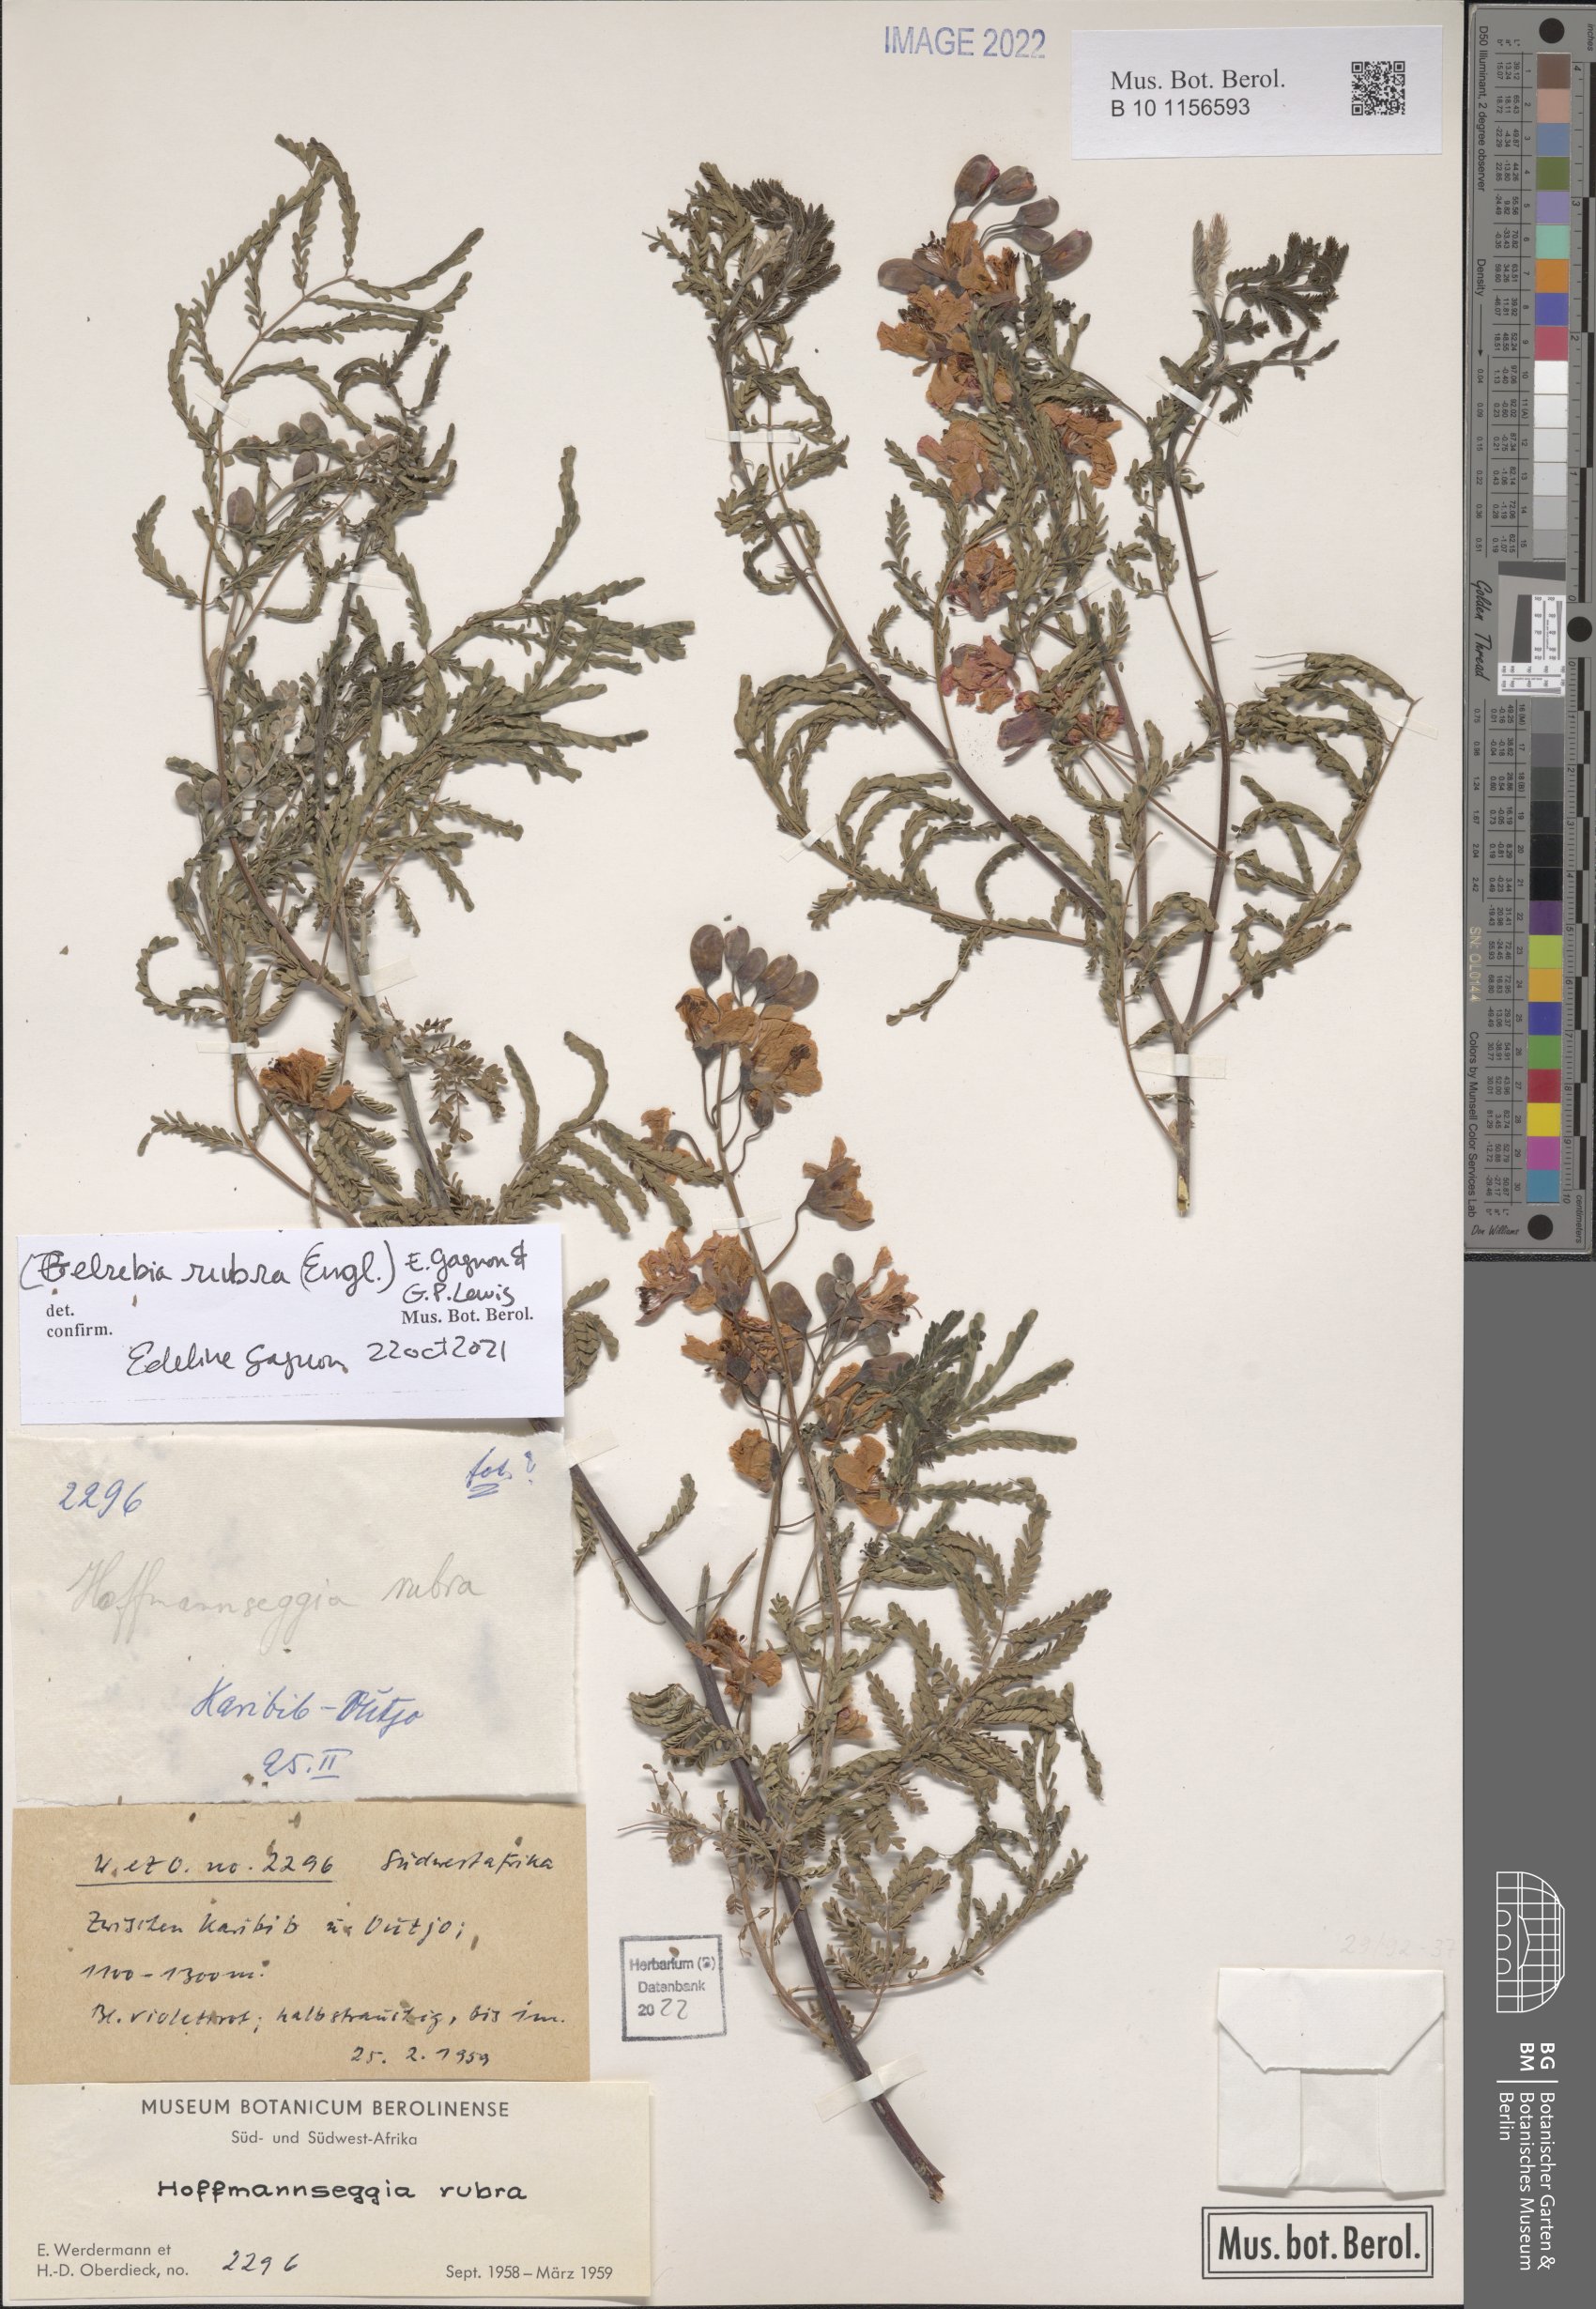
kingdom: Plantae
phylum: Tracheophyta
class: Magnoliopsida
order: Fabales
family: Fabaceae
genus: Gelrebia
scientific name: Gelrebia rubra
